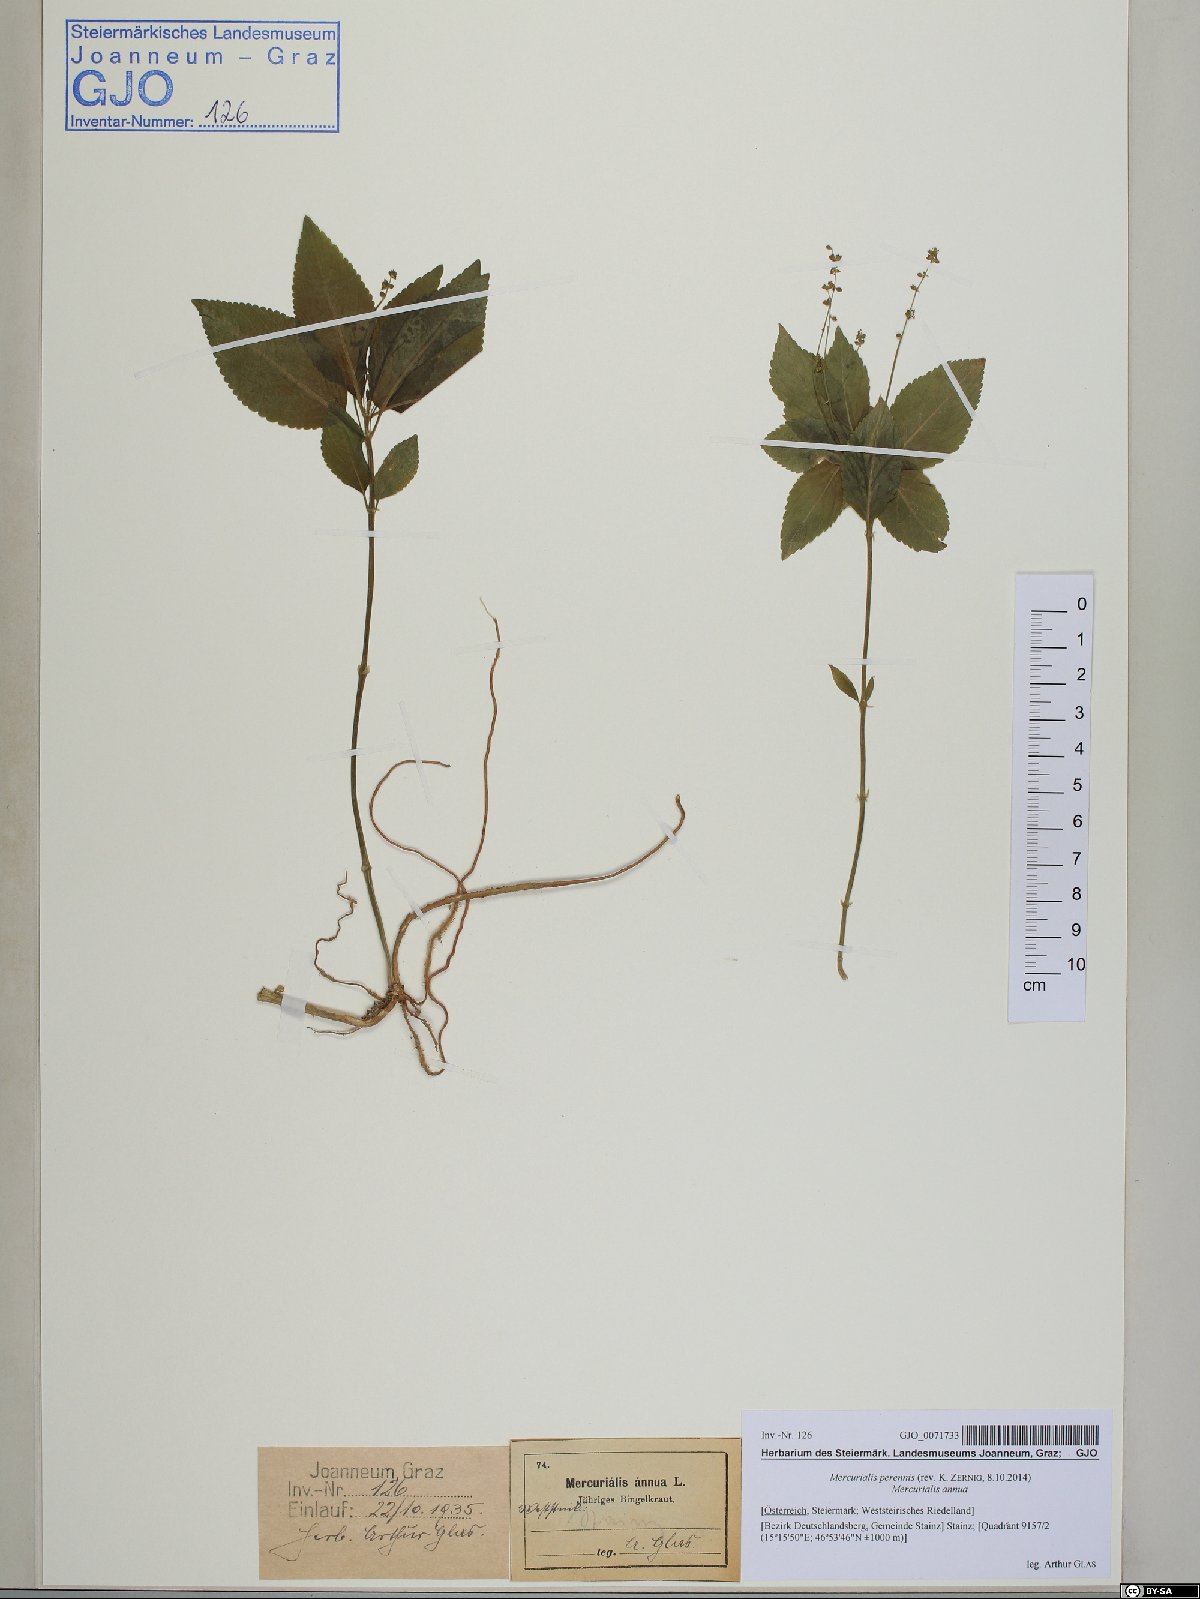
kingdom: Plantae
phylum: Tracheophyta
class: Magnoliopsida
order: Malpighiales
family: Euphorbiaceae
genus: Mercurialis
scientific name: Mercurialis perennis
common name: Dog mercury
